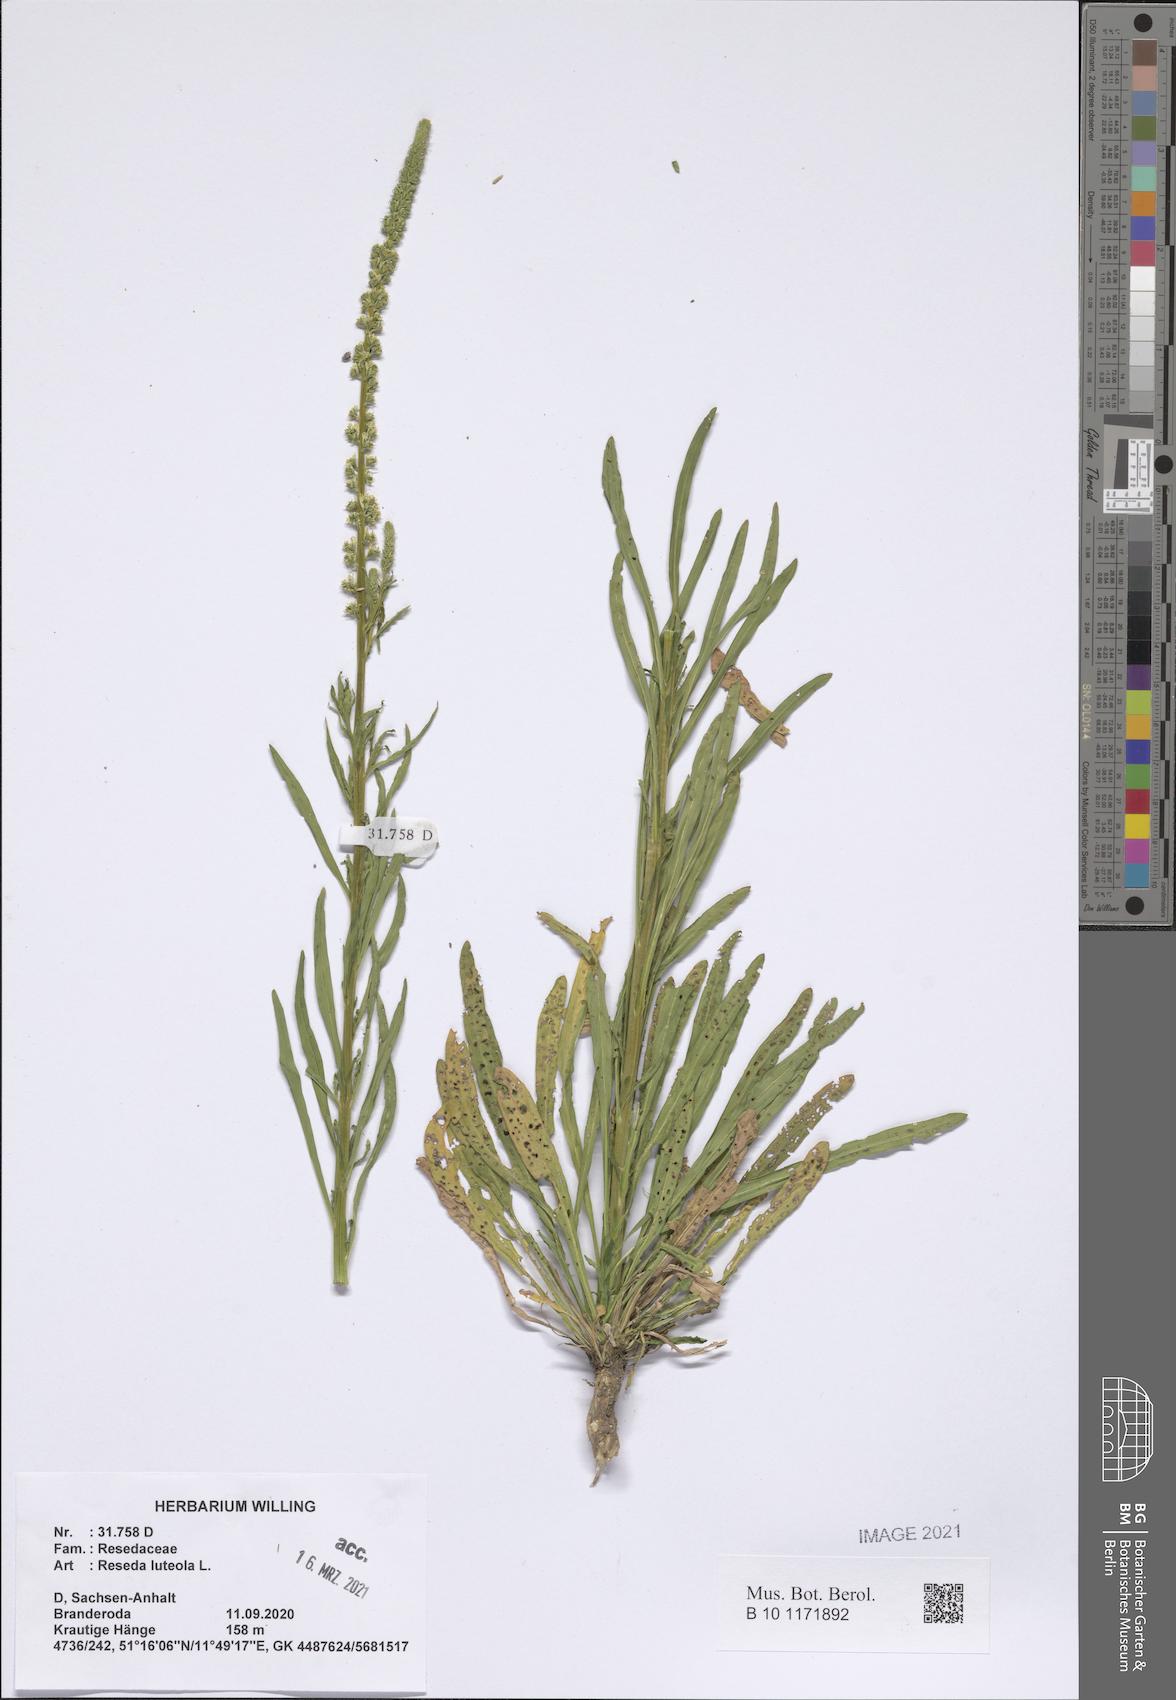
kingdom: Plantae
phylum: Tracheophyta
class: Magnoliopsida
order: Brassicales
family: Resedaceae
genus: Reseda
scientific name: Reseda luteola
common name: Weld
